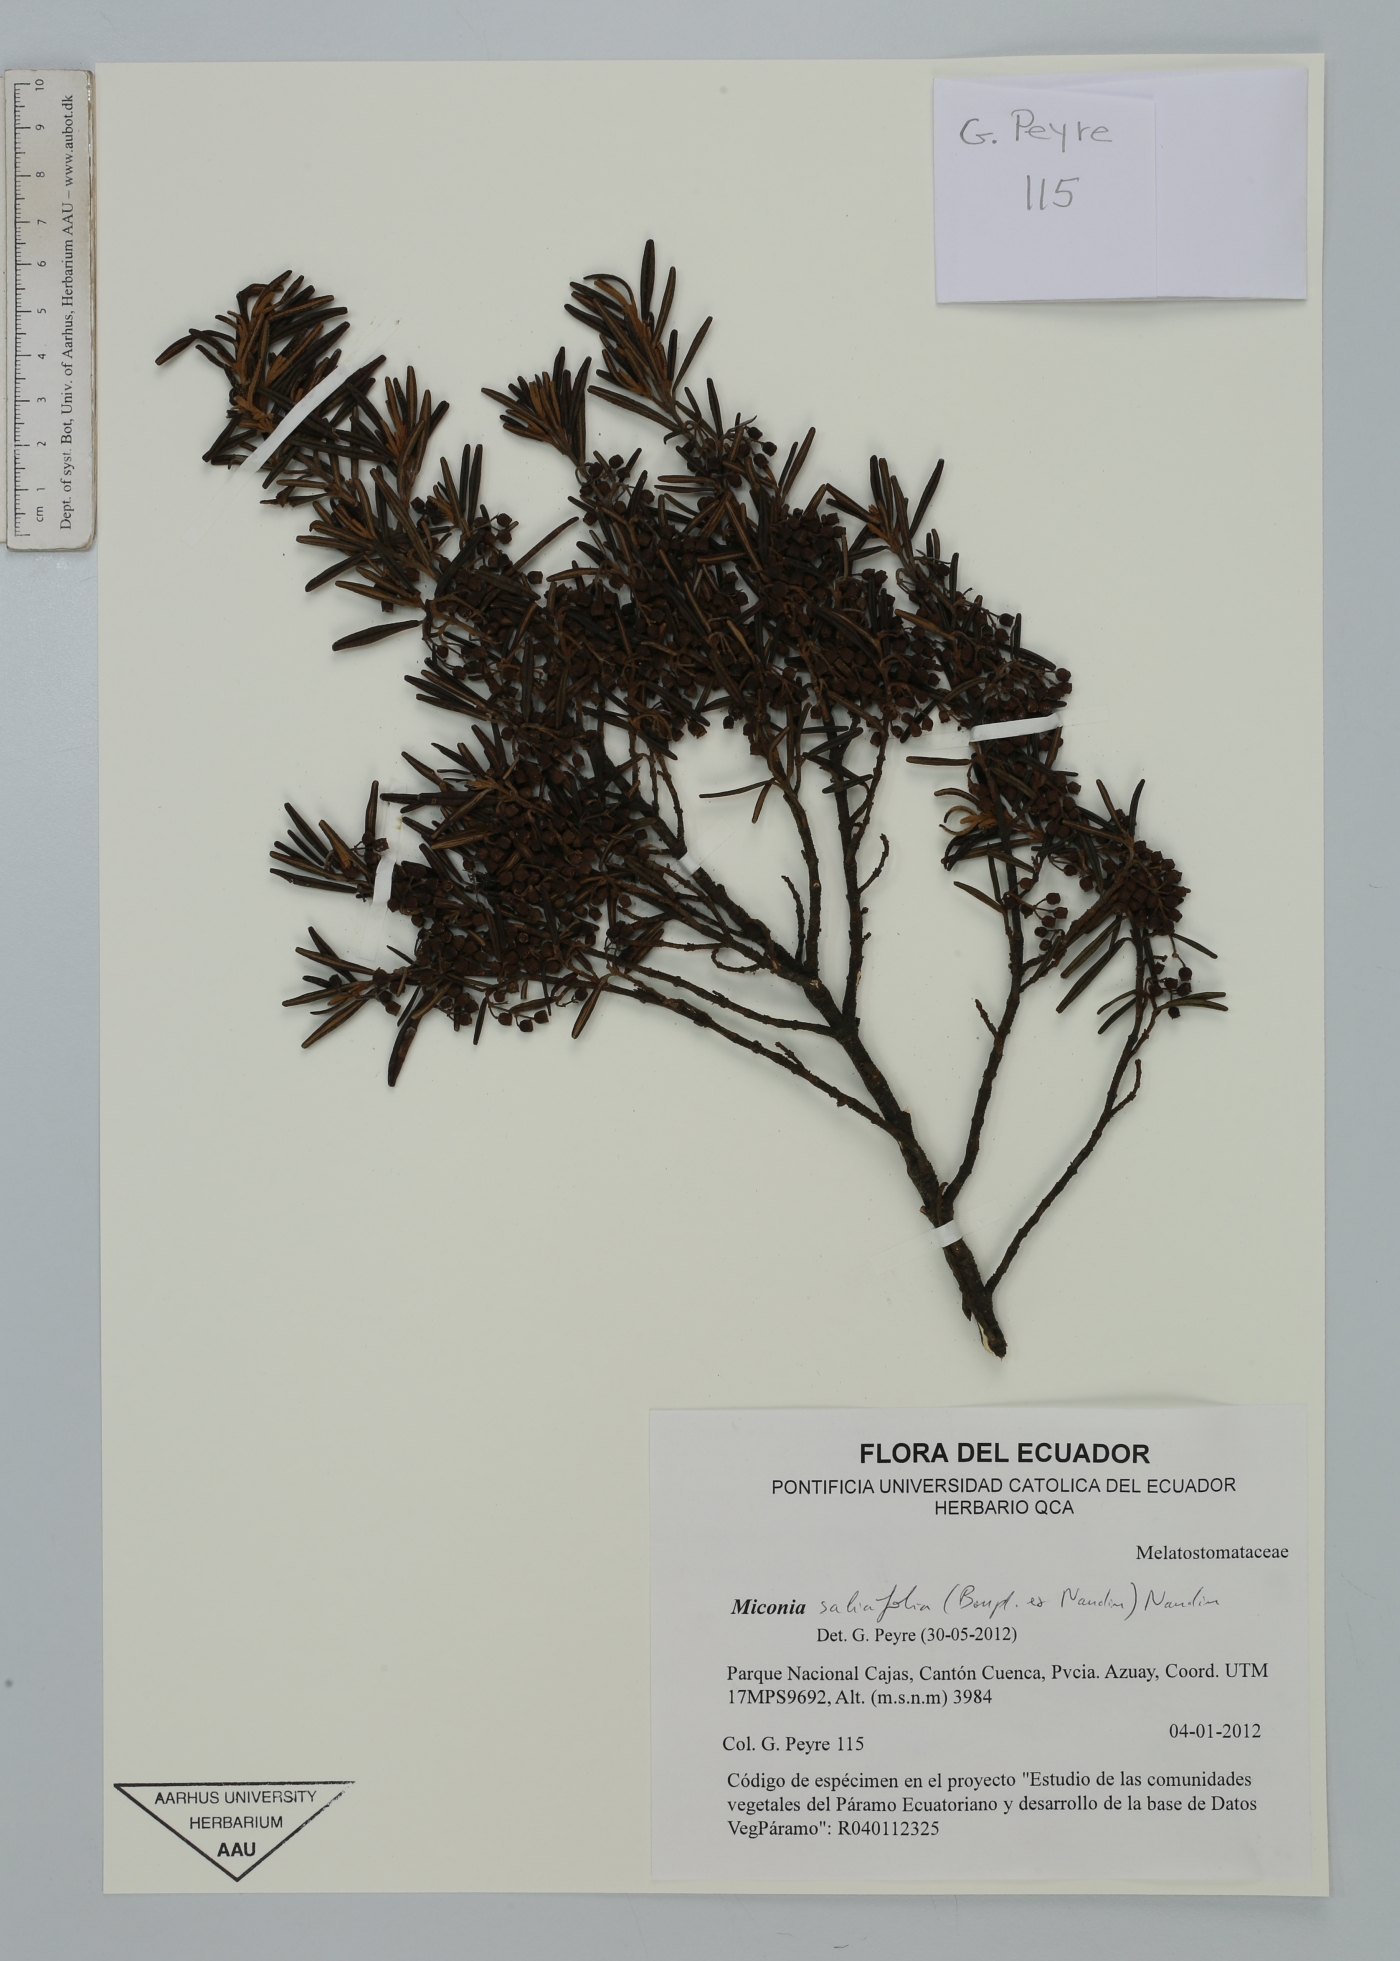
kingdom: Plantae
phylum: Tracheophyta
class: Magnoliopsida
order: Myrtales
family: Melastomataceae
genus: Miconia
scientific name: Miconia salicifolia
